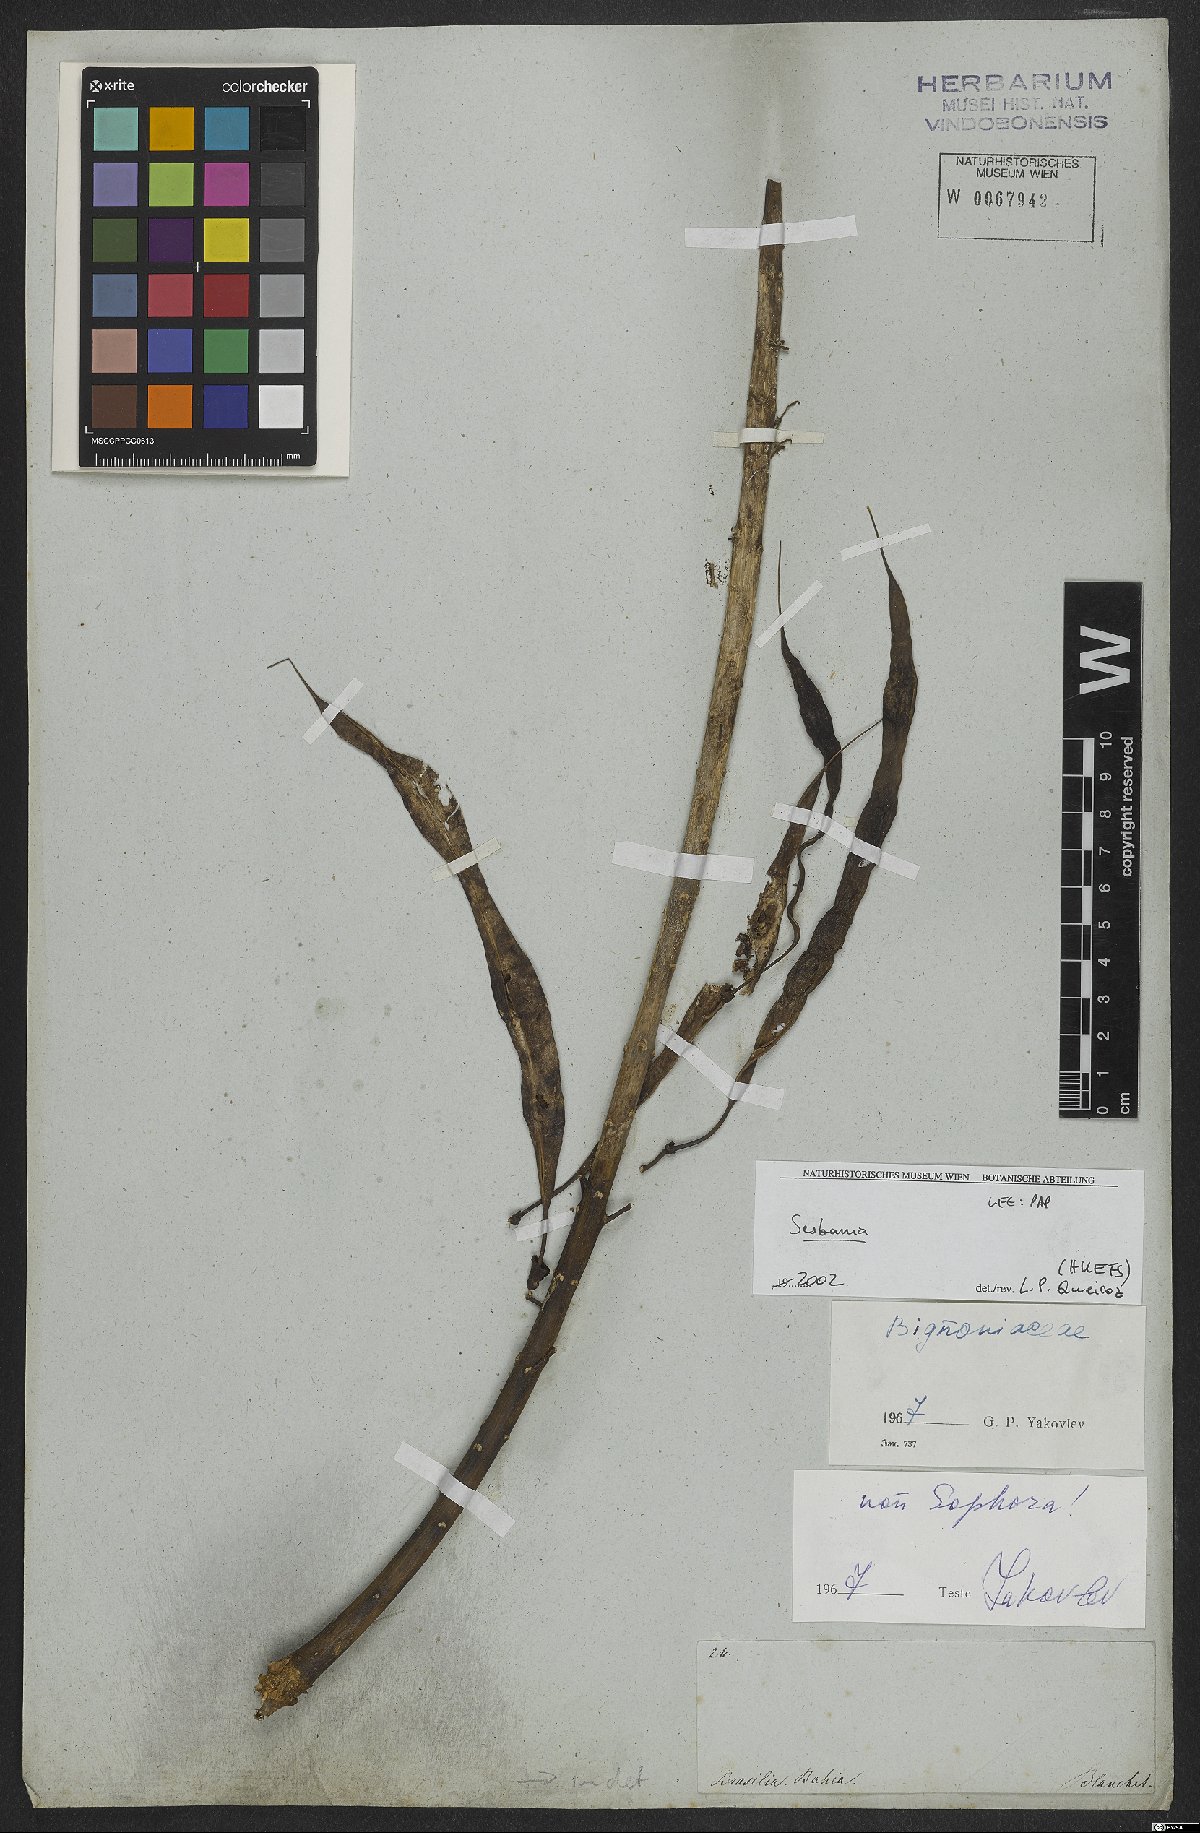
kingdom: Plantae
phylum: Tracheophyta
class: Magnoliopsida
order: Fabales
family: Fabaceae
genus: Sesbania
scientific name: Sesbania
